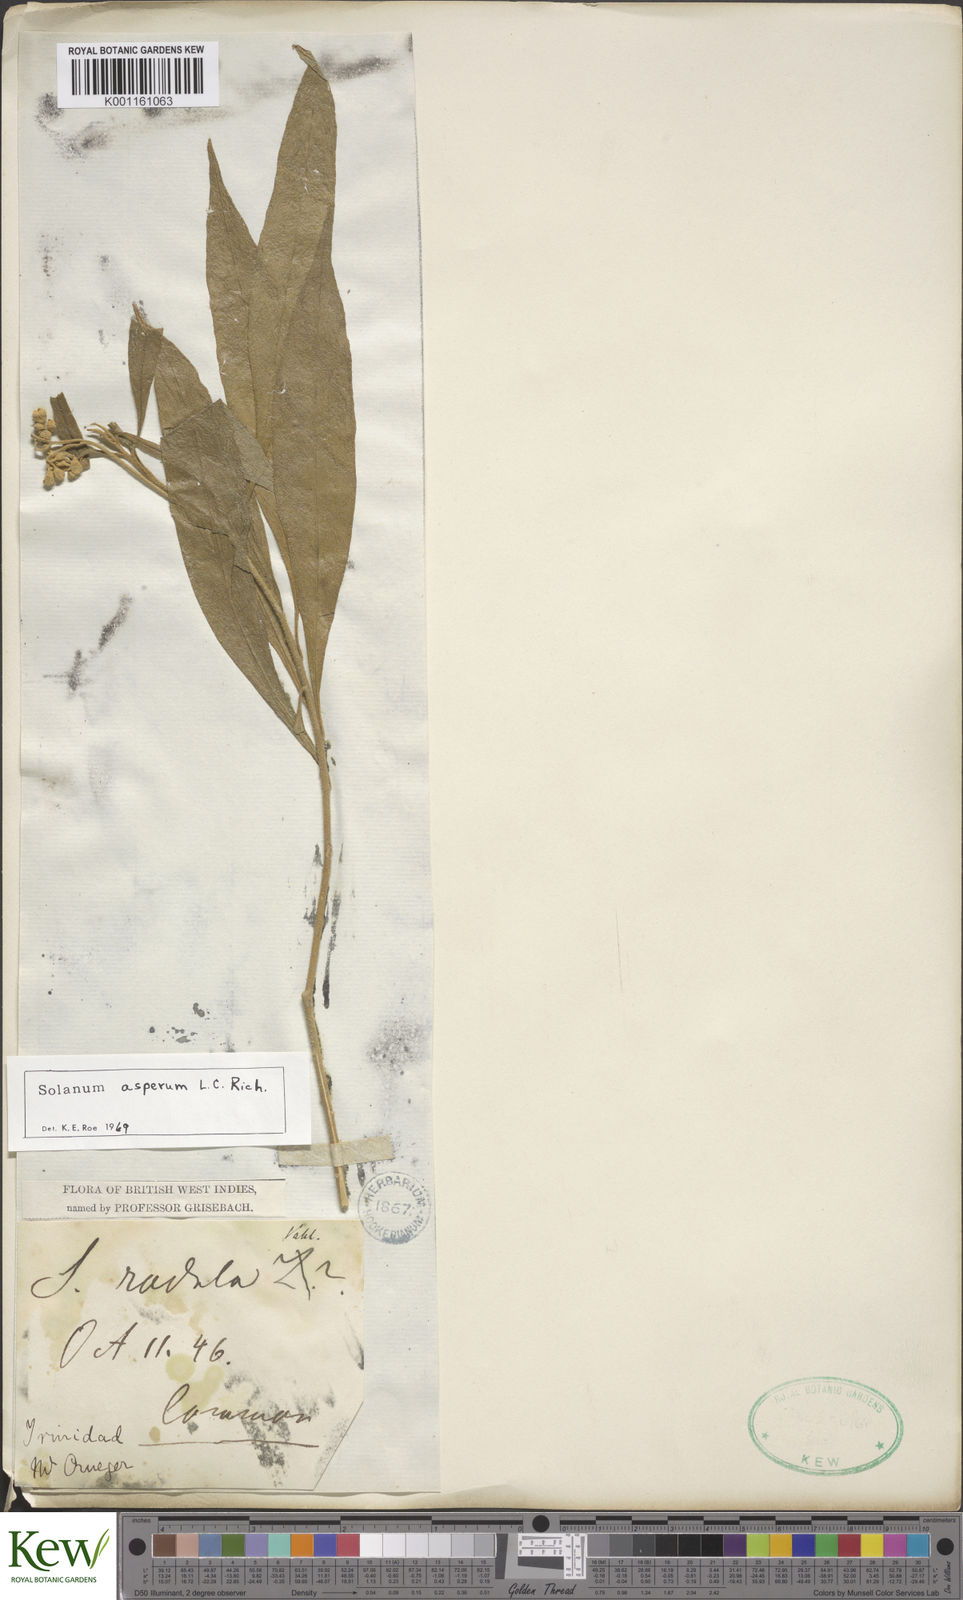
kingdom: Plantae
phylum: Tracheophyta
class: Magnoliopsida
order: Solanales
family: Solanaceae
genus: Solanum
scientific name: Solanum asperum
